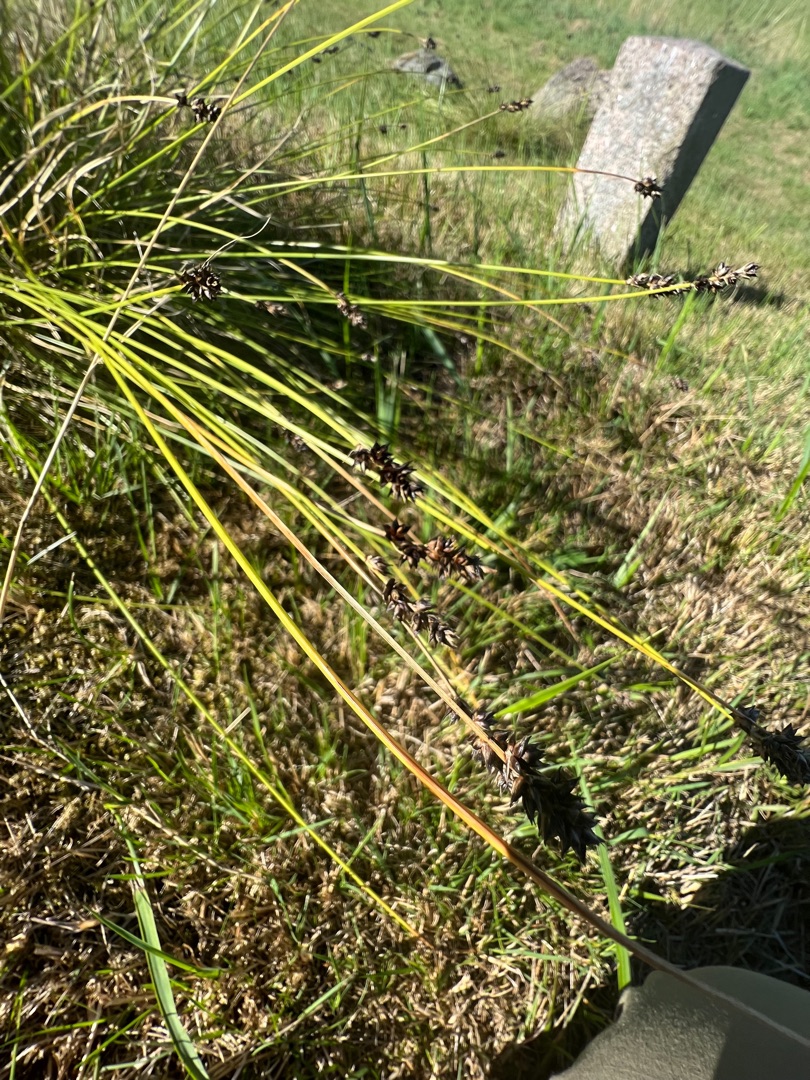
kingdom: Plantae
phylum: Tracheophyta
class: Liliopsida
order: Poales
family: Cyperaceae
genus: Carex
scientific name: Carex pairae
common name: Pigget star
